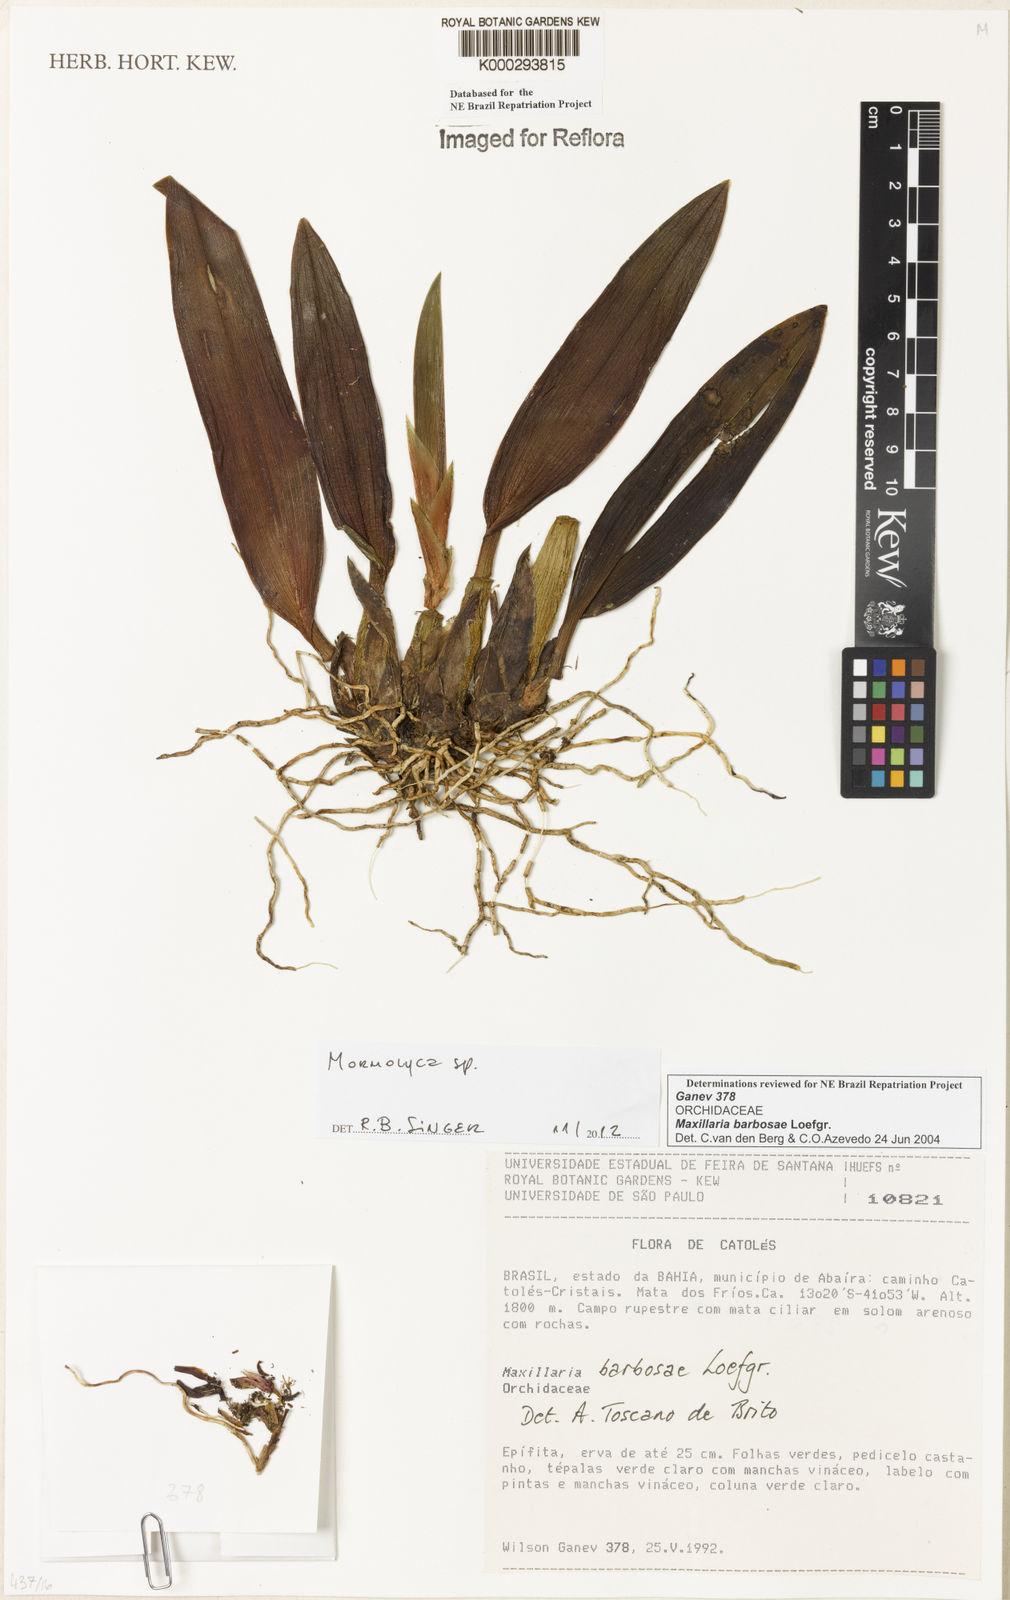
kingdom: Plantae
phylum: Tracheophyta
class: Liliopsida
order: Asparagales
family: Orchidaceae
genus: Maxillaria
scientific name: Maxillaria
